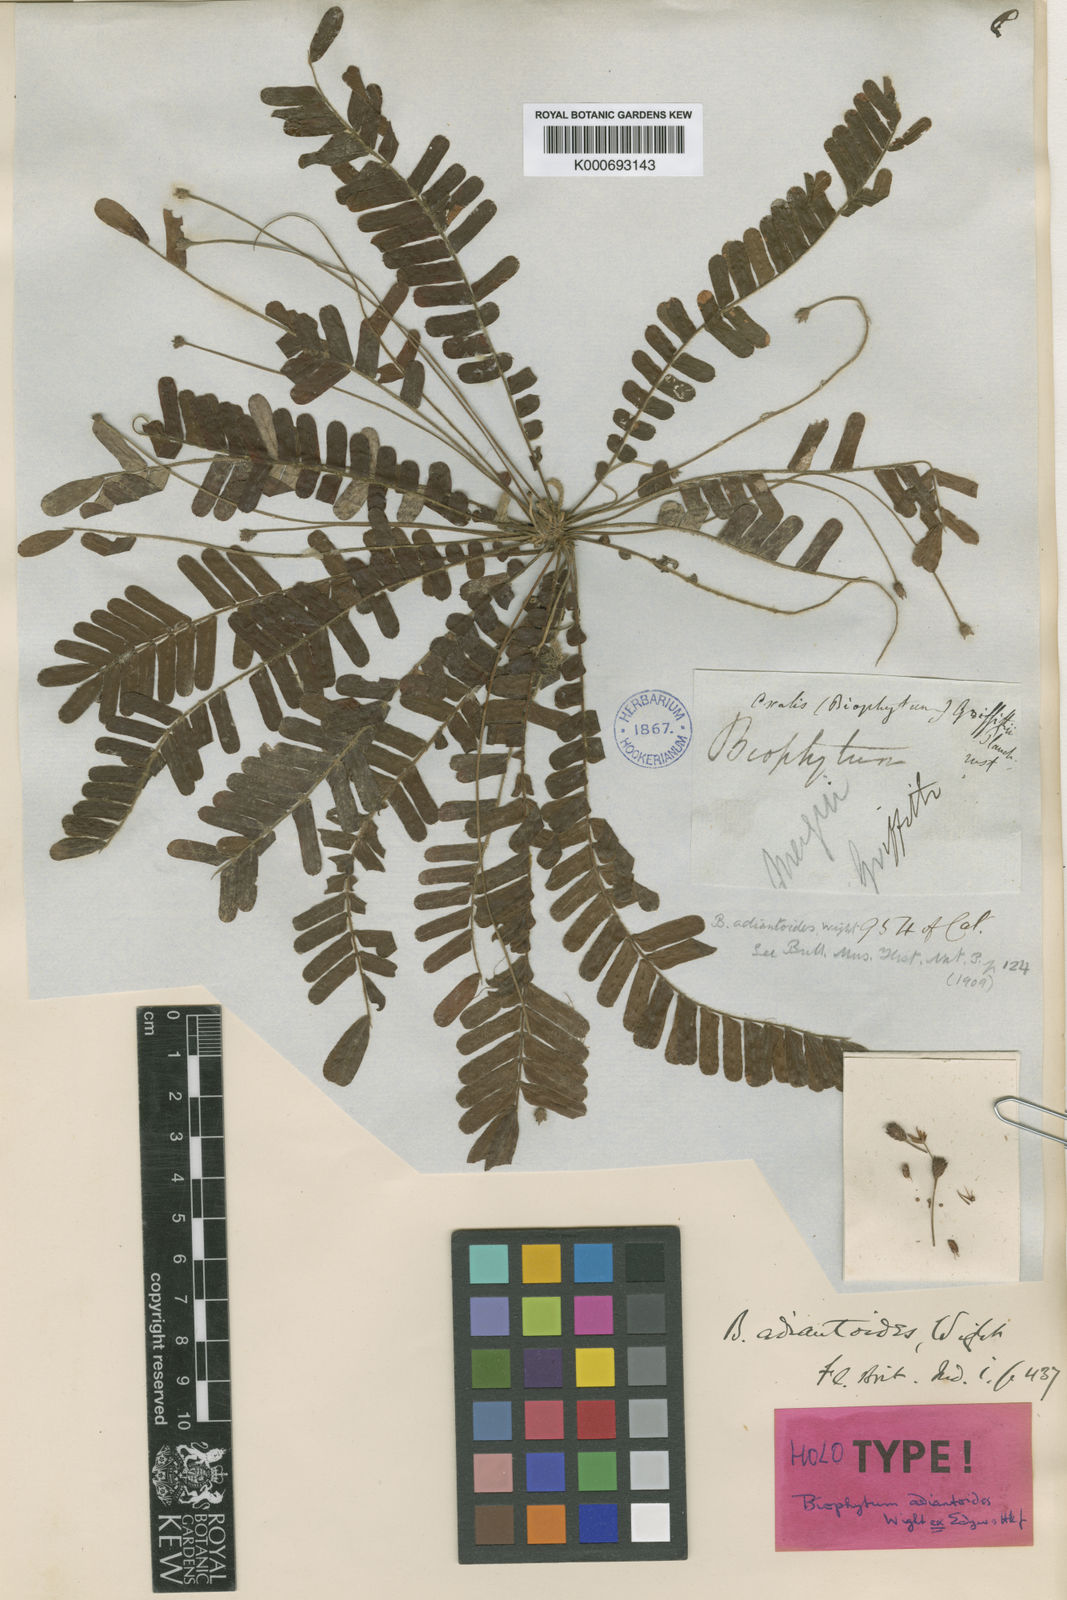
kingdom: Plantae
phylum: Tracheophyta
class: Magnoliopsida
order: Oxalidales
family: Oxalidaceae
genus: Biophytum
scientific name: Biophytum adiantoides
